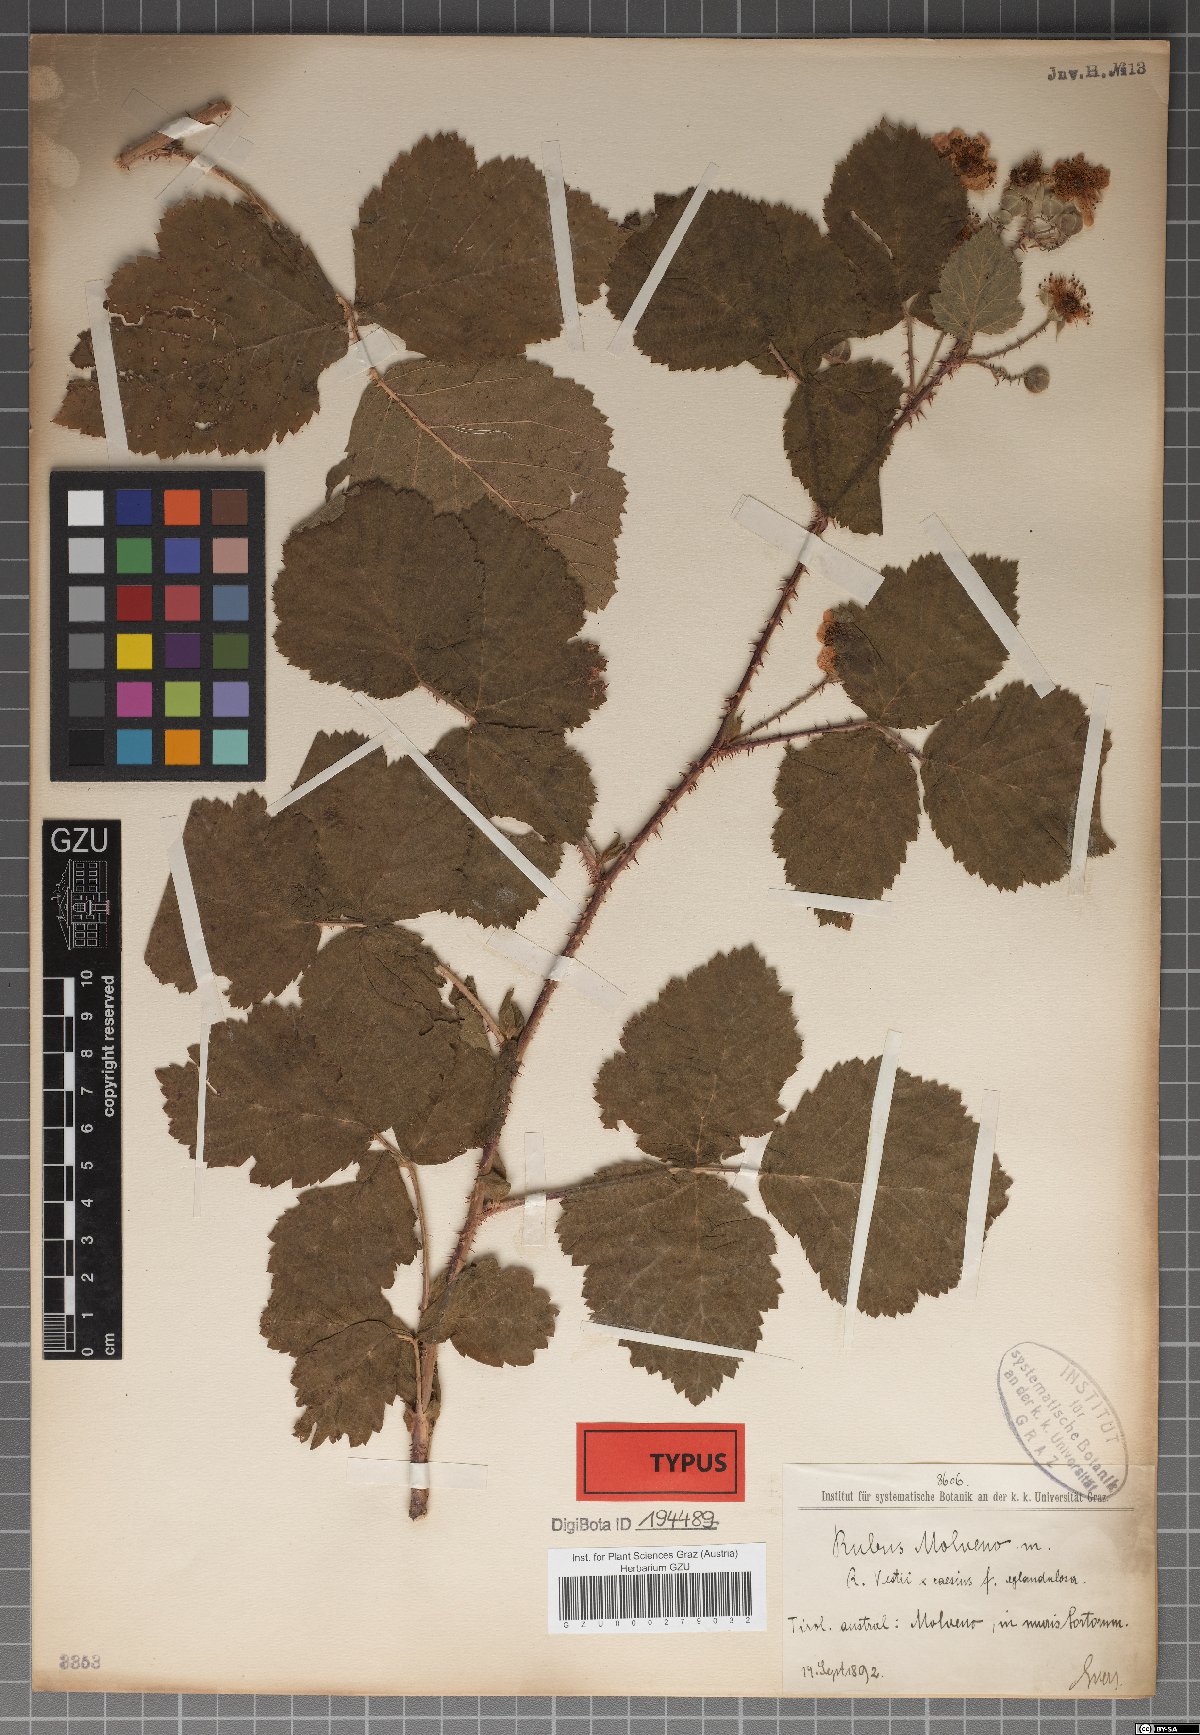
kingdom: Plantae
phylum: Tracheophyta
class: Magnoliopsida
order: Rosales
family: Rosaceae
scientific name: Rosaceae
